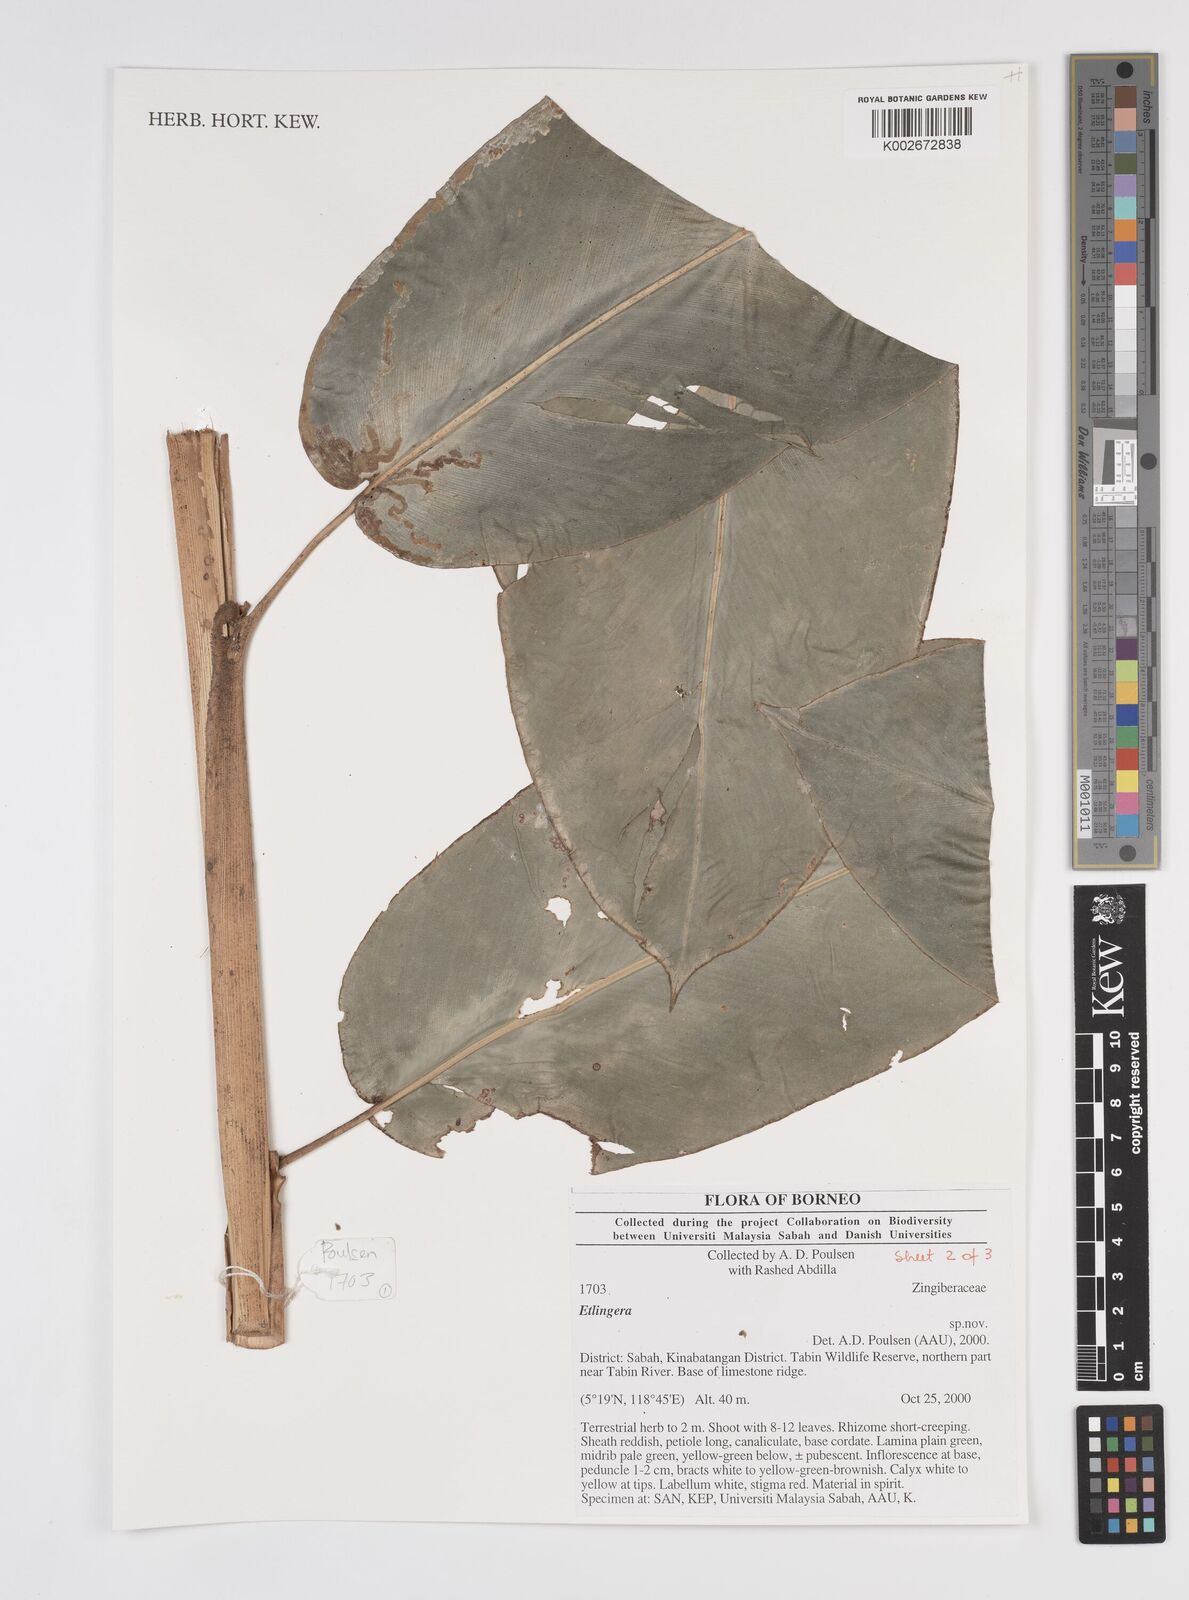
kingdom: Plantae
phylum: Tracheophyta
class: Liliopsida
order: Zingiberales
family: Zingiberaceae
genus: Etlingera
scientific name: Etlingera
